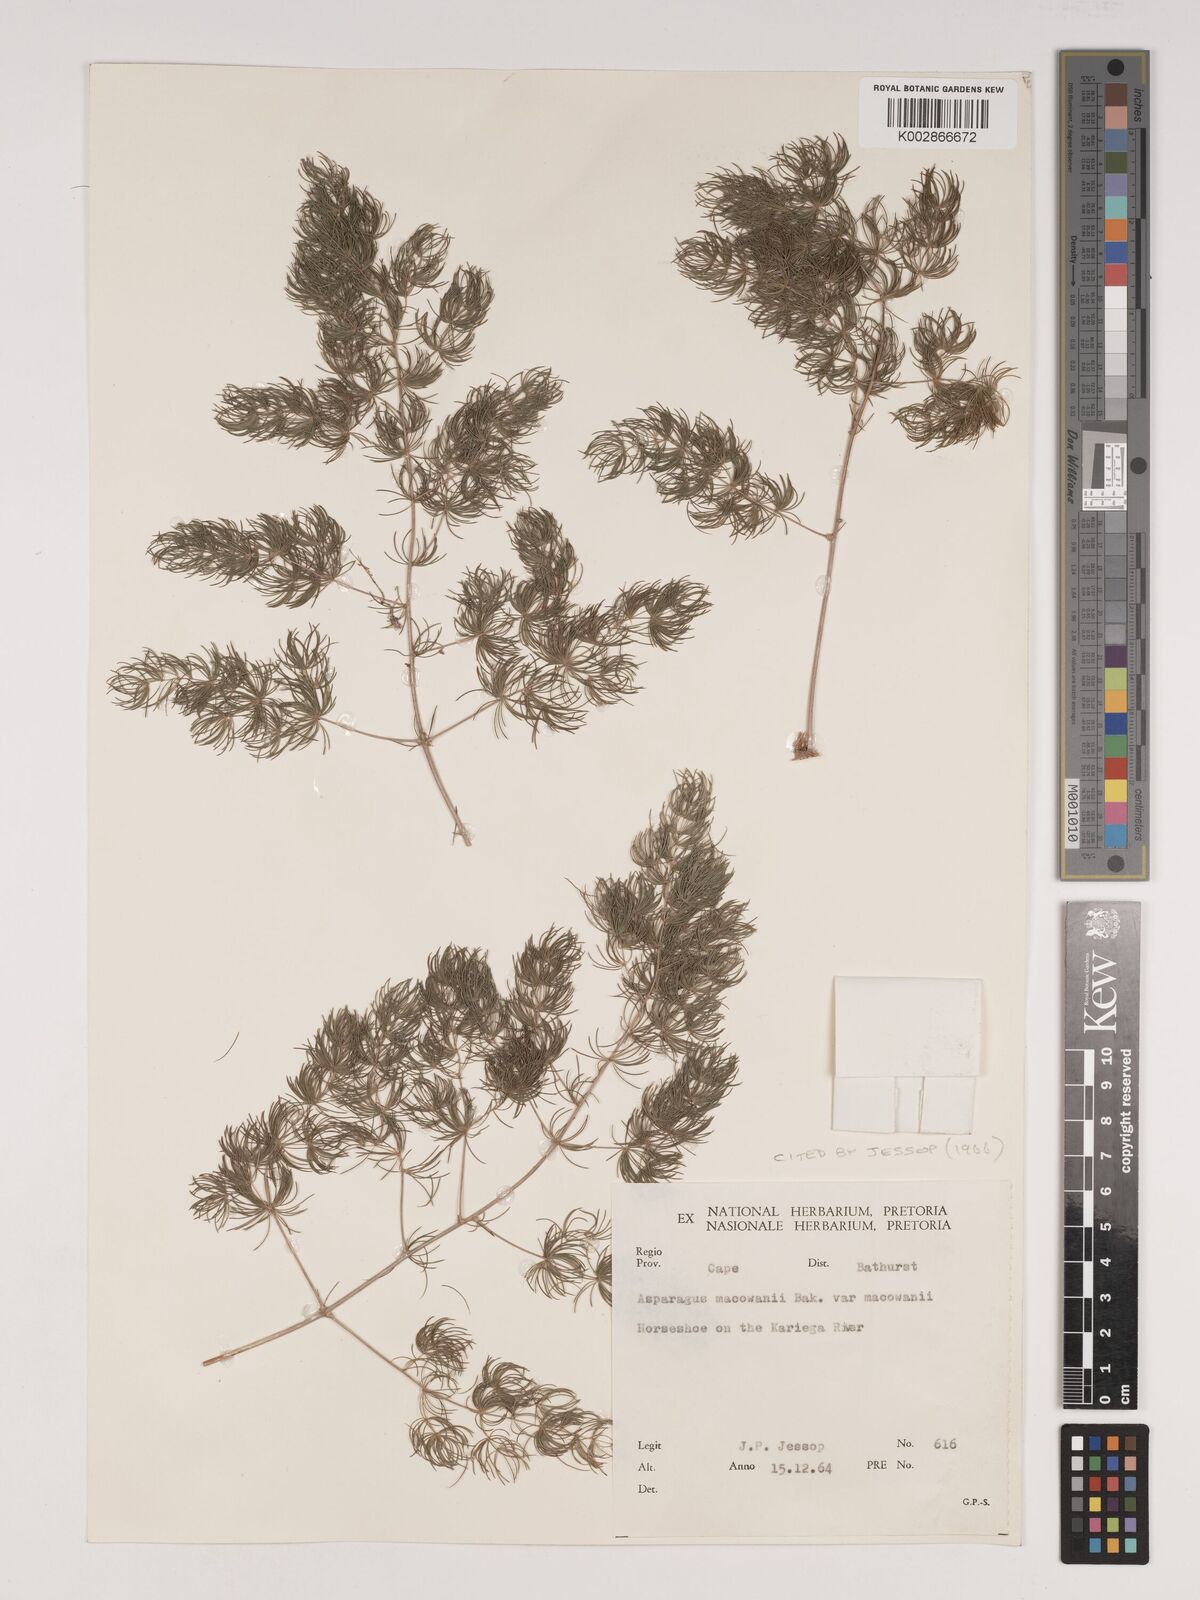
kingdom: Plantae
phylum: Tracheophyta
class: Liliopsida
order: Asparagales
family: Asparagaceae
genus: Asparagus
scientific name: Asparagus macowanii
